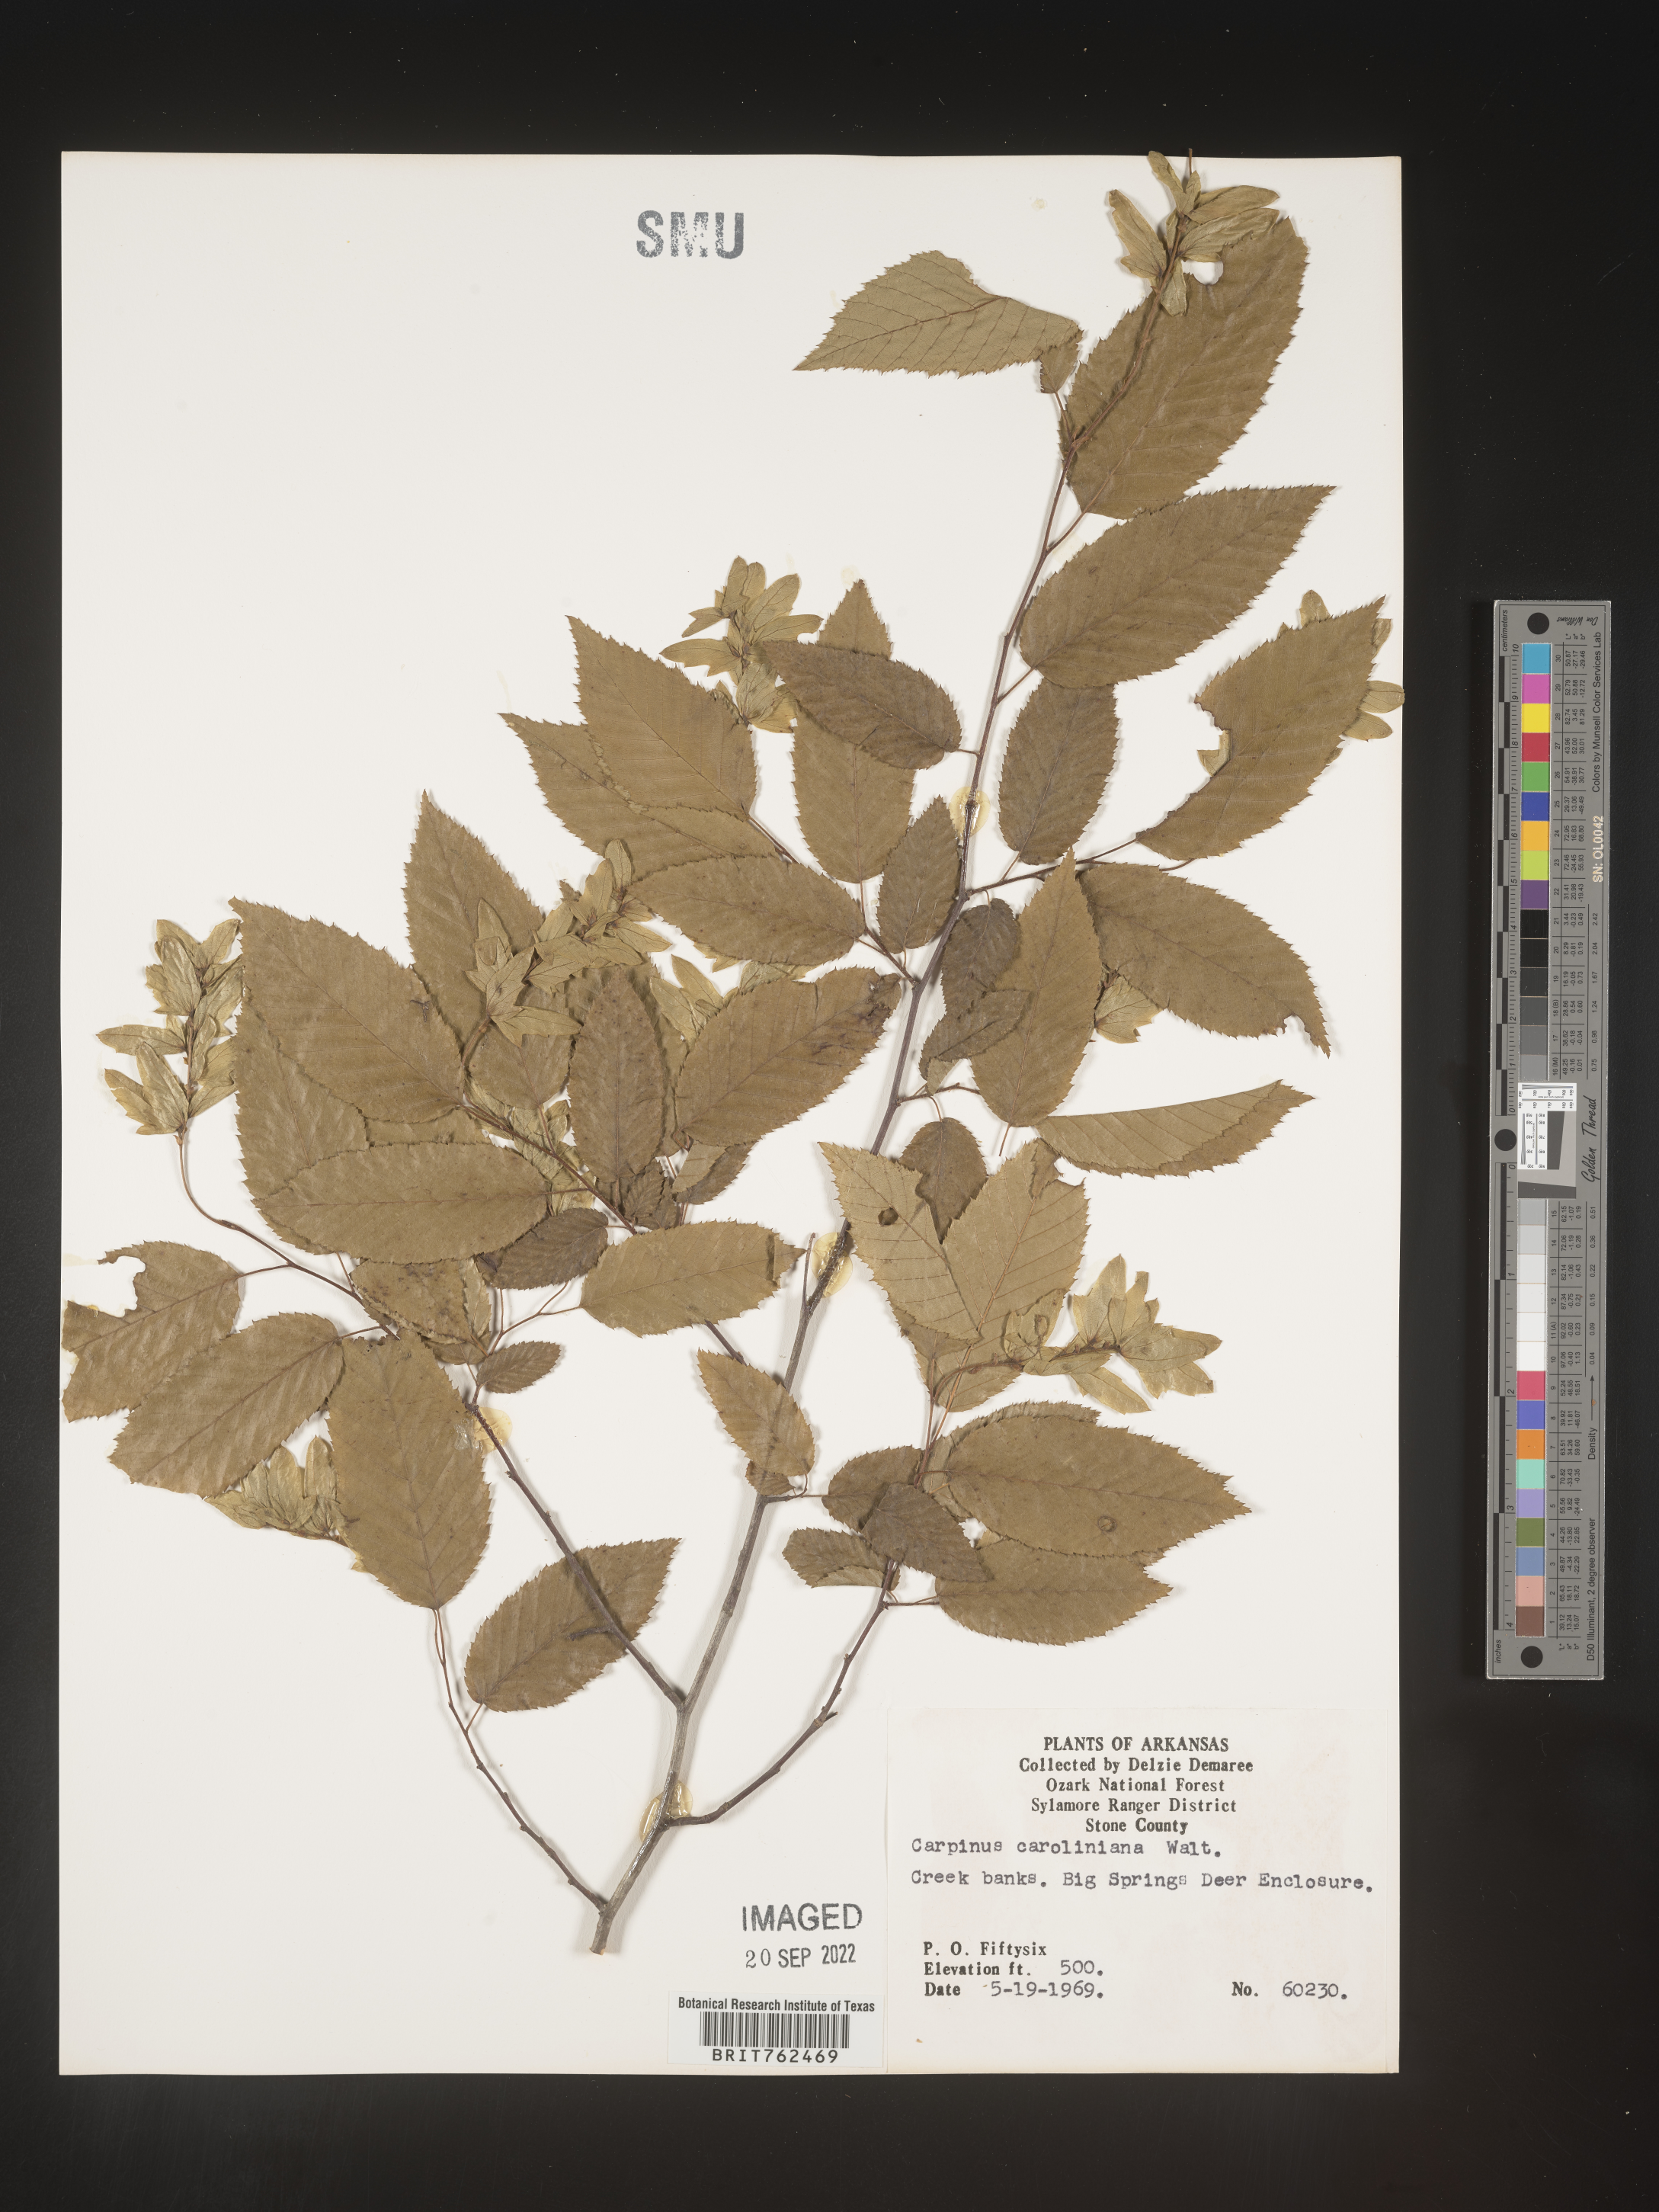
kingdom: Plantae
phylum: Tracheophyta
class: Magnoliopsida
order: Fagales
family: Betulaceae
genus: Carpinus
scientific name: Carpinus caroliniana
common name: American hornbeam
